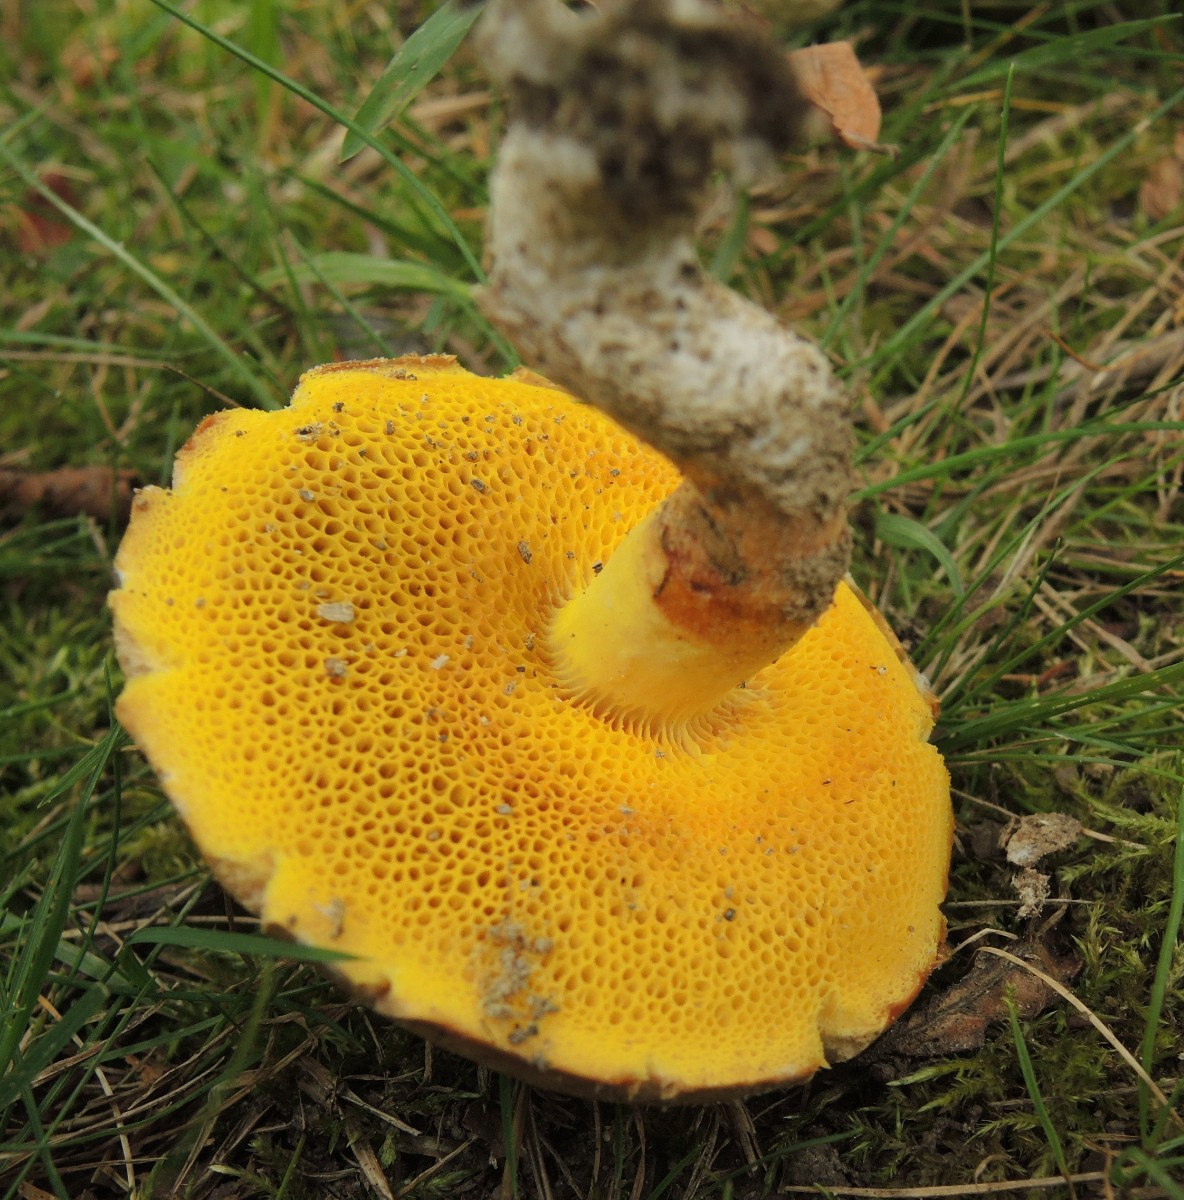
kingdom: Fungi
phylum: Basidiomycota
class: Agaricomycetes
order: Boletales
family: Boletaceae
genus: Aureoboletus
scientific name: Aureoboletus gentilis
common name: guldrørhat
